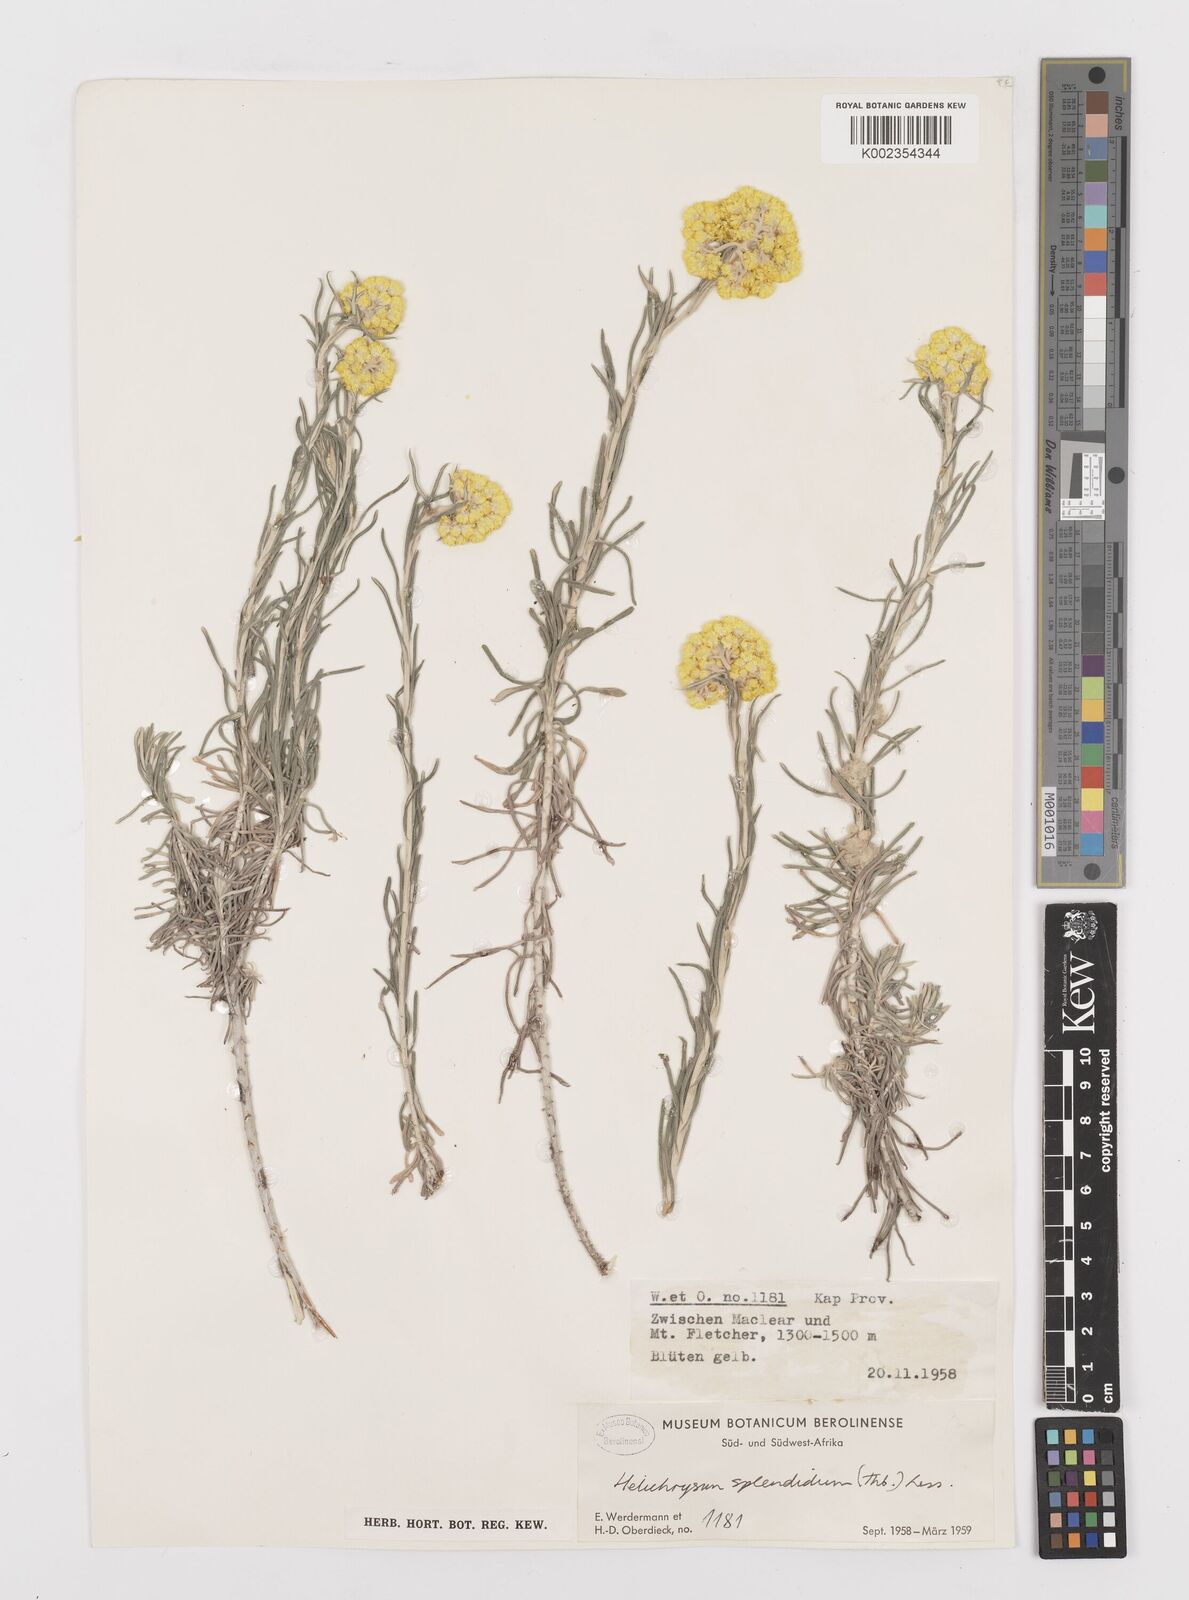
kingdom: Plantae
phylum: Tracheophyta
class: Magnoliopsida
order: Asterales
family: Asteraceae
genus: Helichrysum
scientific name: Helichrysum splendidum
